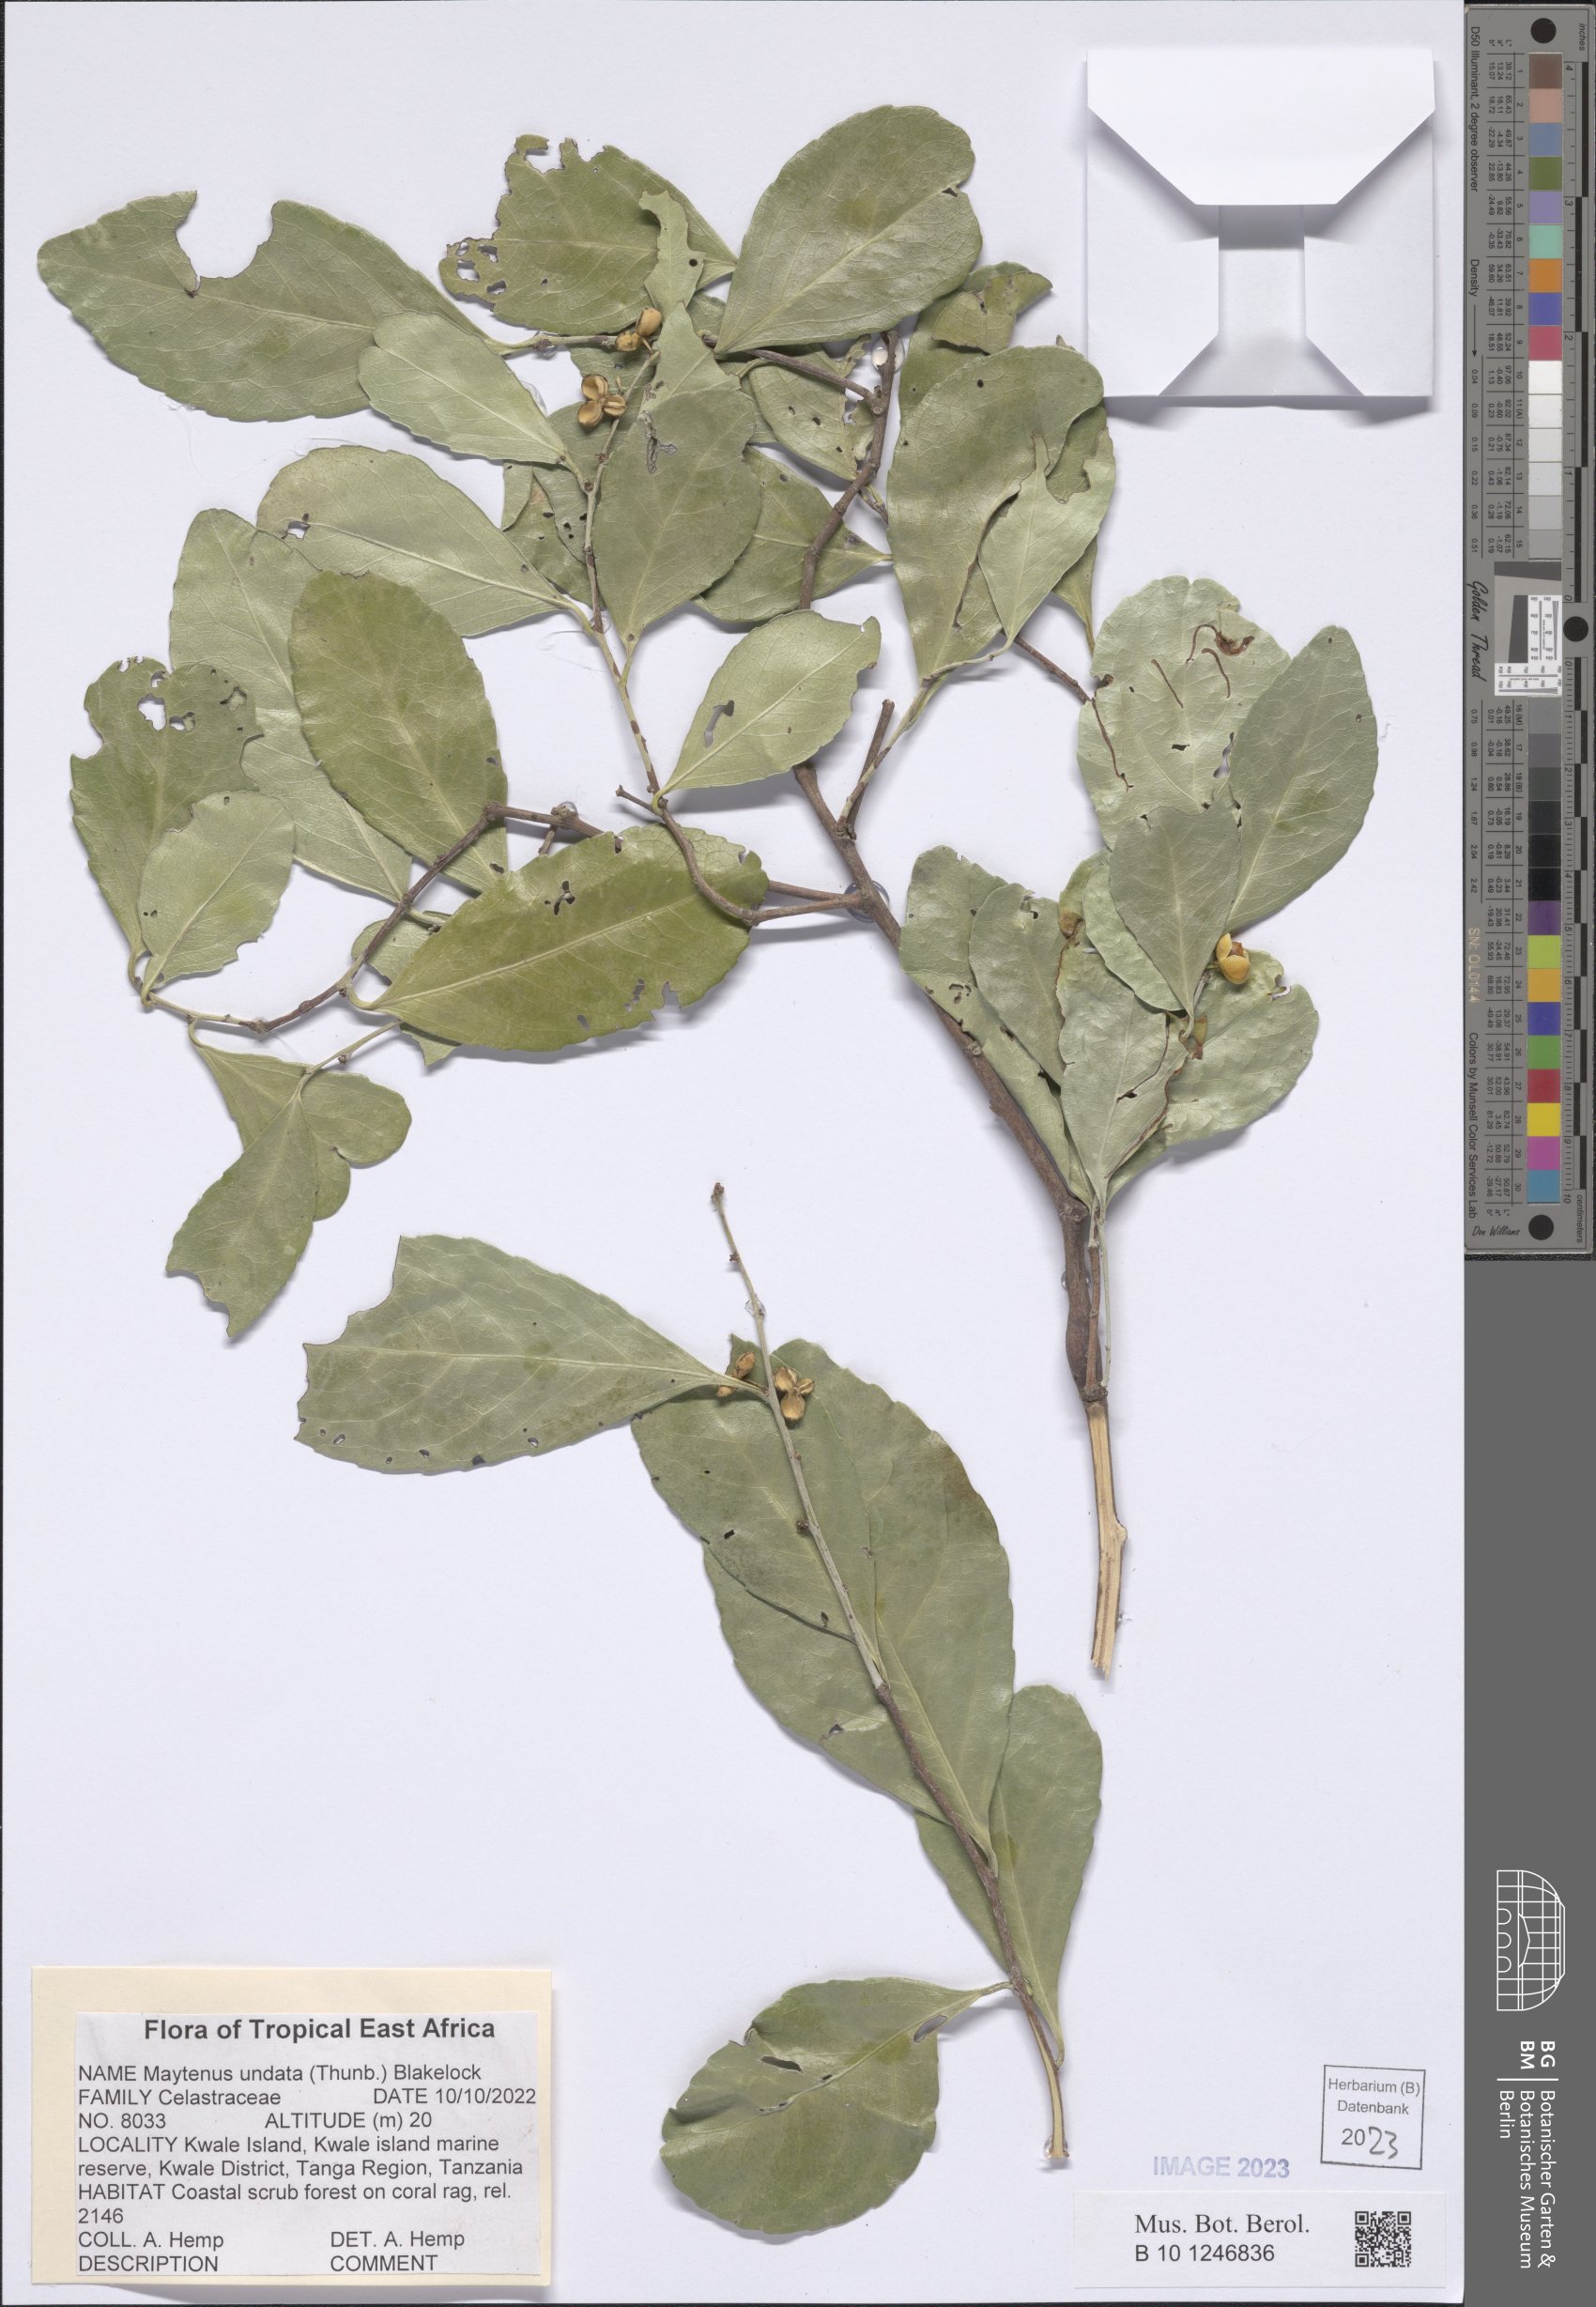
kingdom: Plantae
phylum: Tracheophyta
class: Magnoliopsida
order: Celastrales
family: Celastraceae
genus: Gymnosporia
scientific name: Gymnosporia undata
